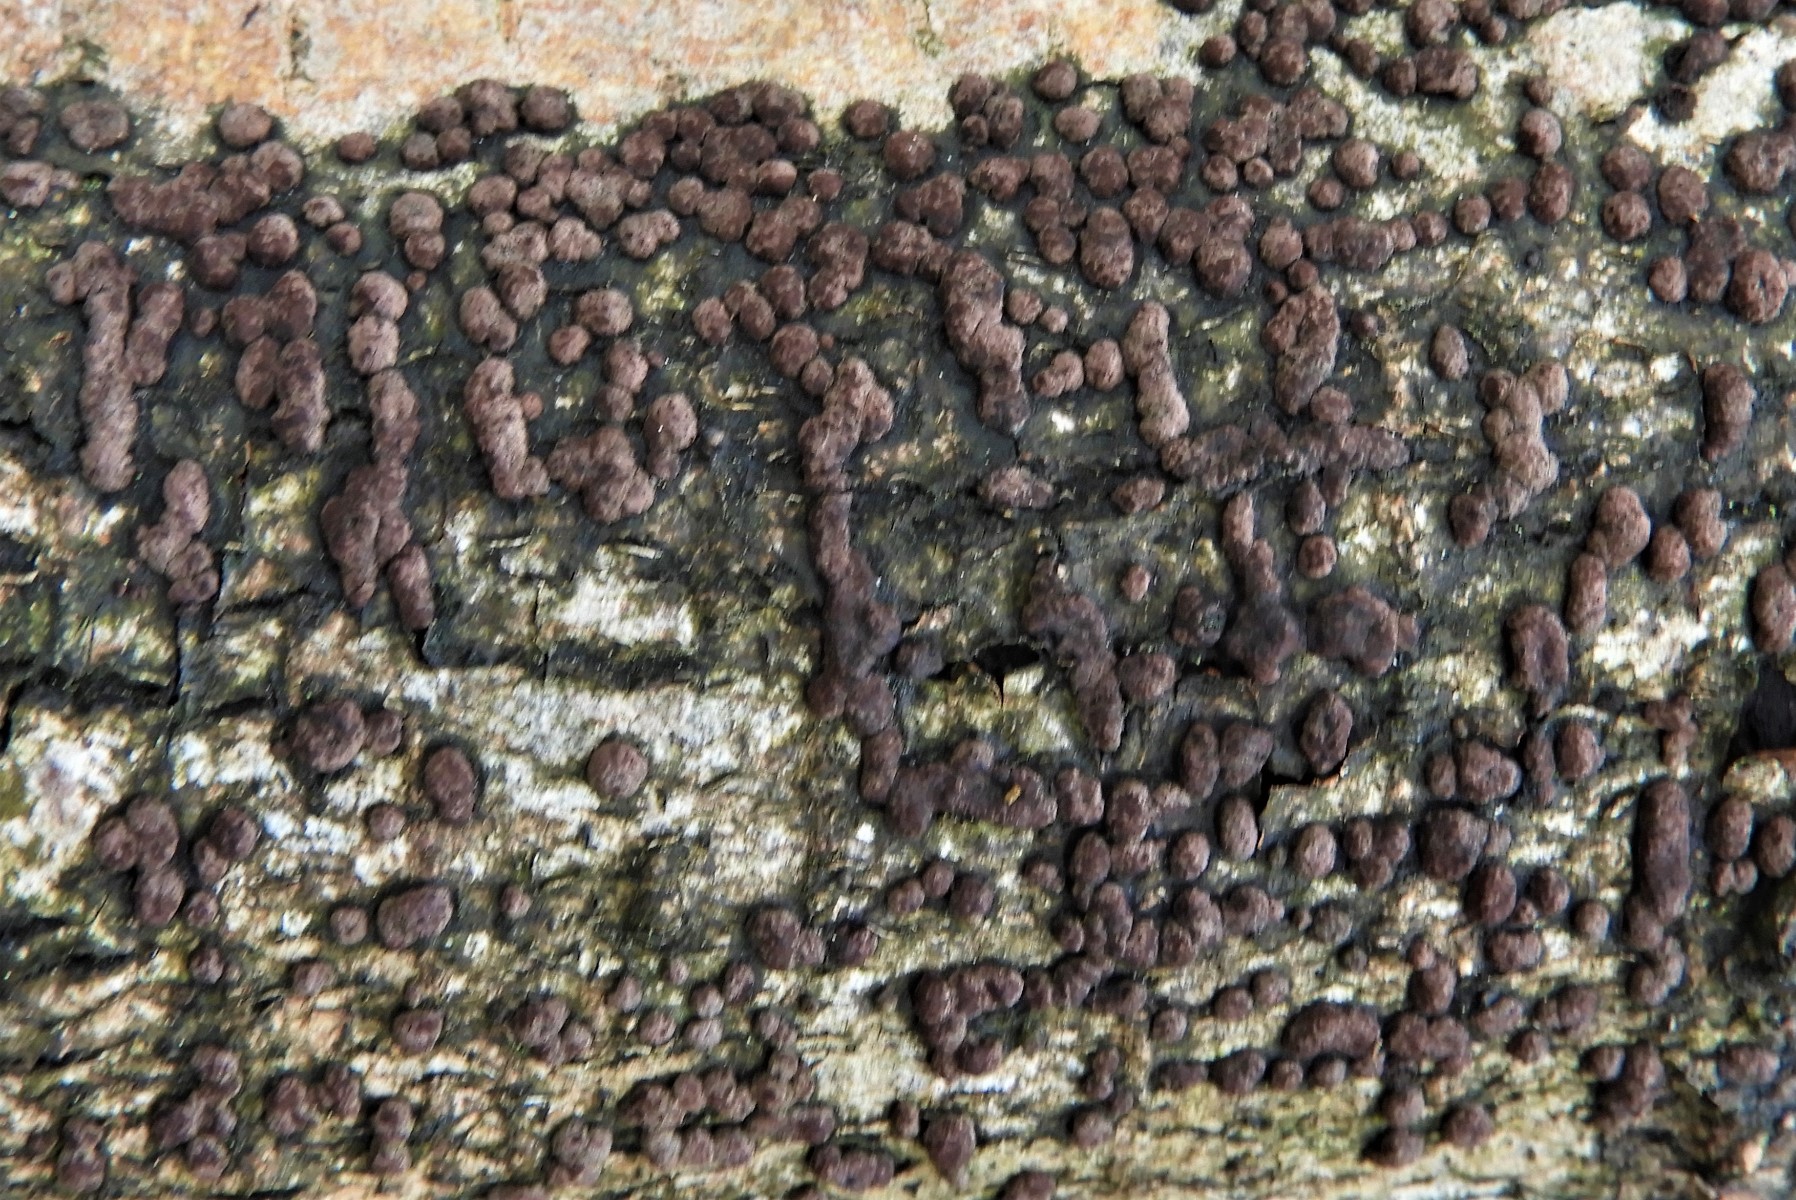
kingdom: Fungi
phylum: Ascomycota
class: Sordariomycetes
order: Xylariales
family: Hypoxylaceae
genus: Hypoxylon
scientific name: Hypoxylon fuscum
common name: kegleformet kulbær
